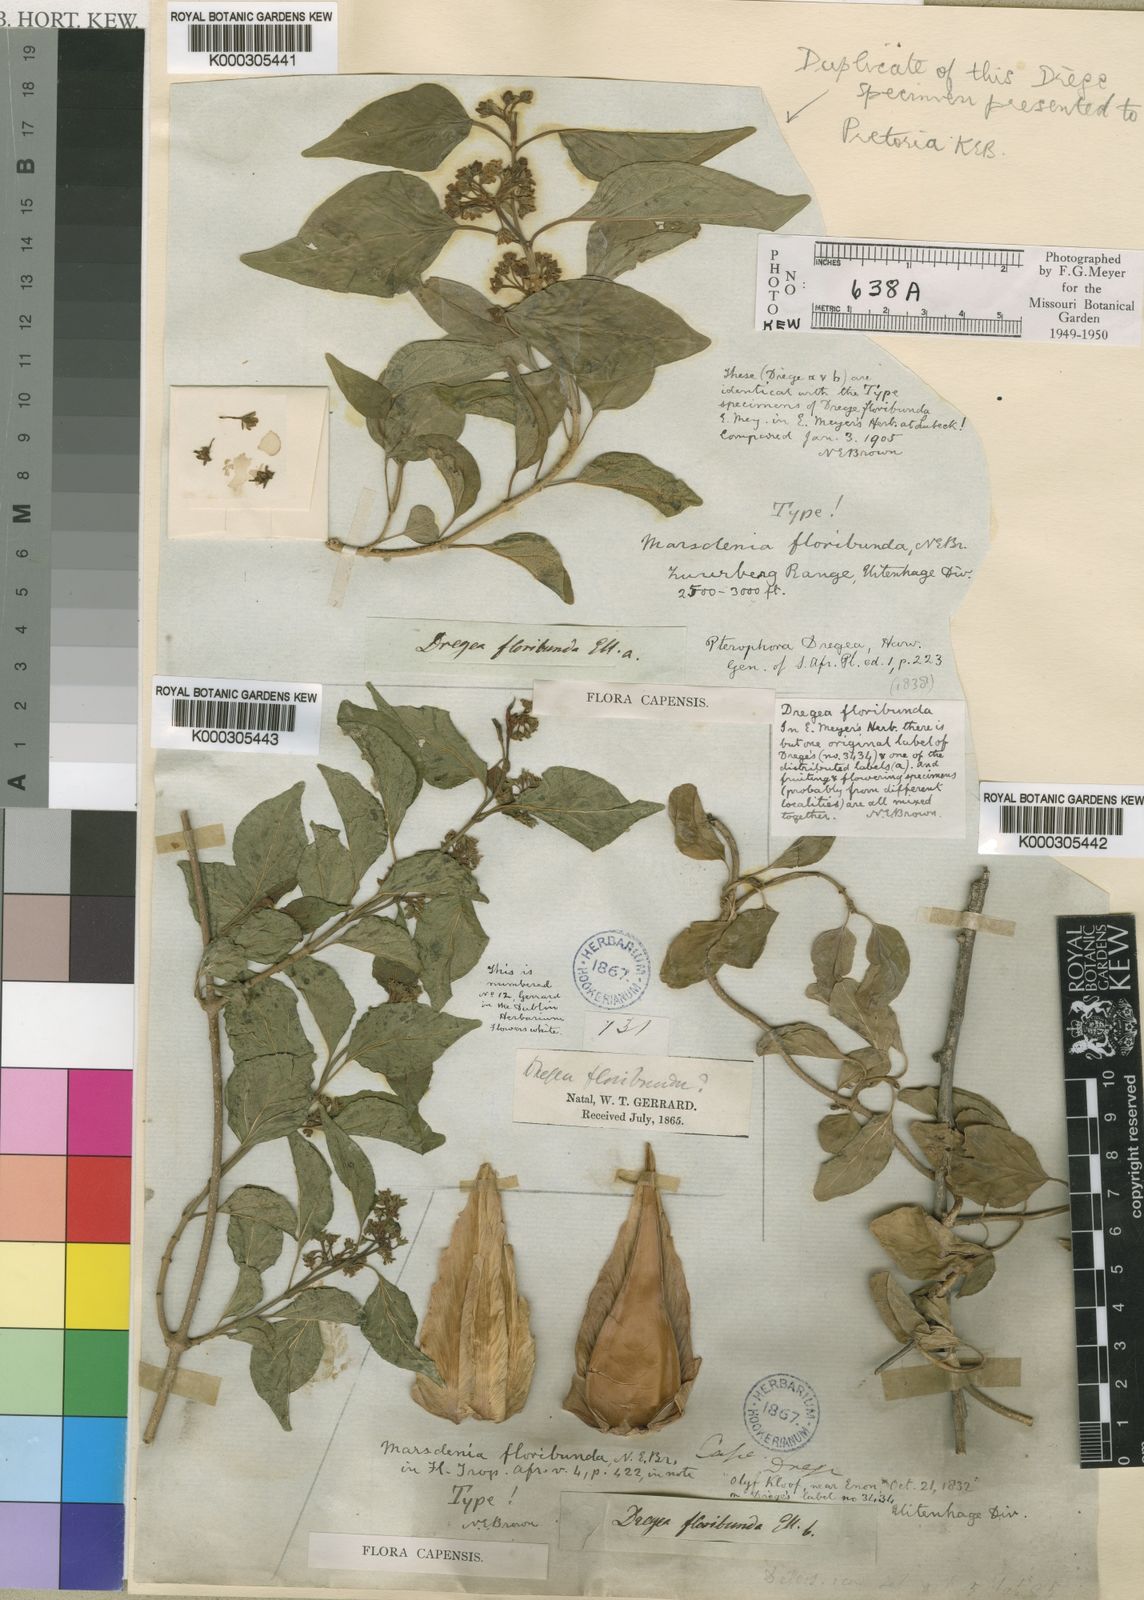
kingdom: Plantae
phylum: Tracheophyta
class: Magnoliopsida
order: Gentianales
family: Apocynaceae
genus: Stephanotis
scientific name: Stephanotis ernstmeyeri
